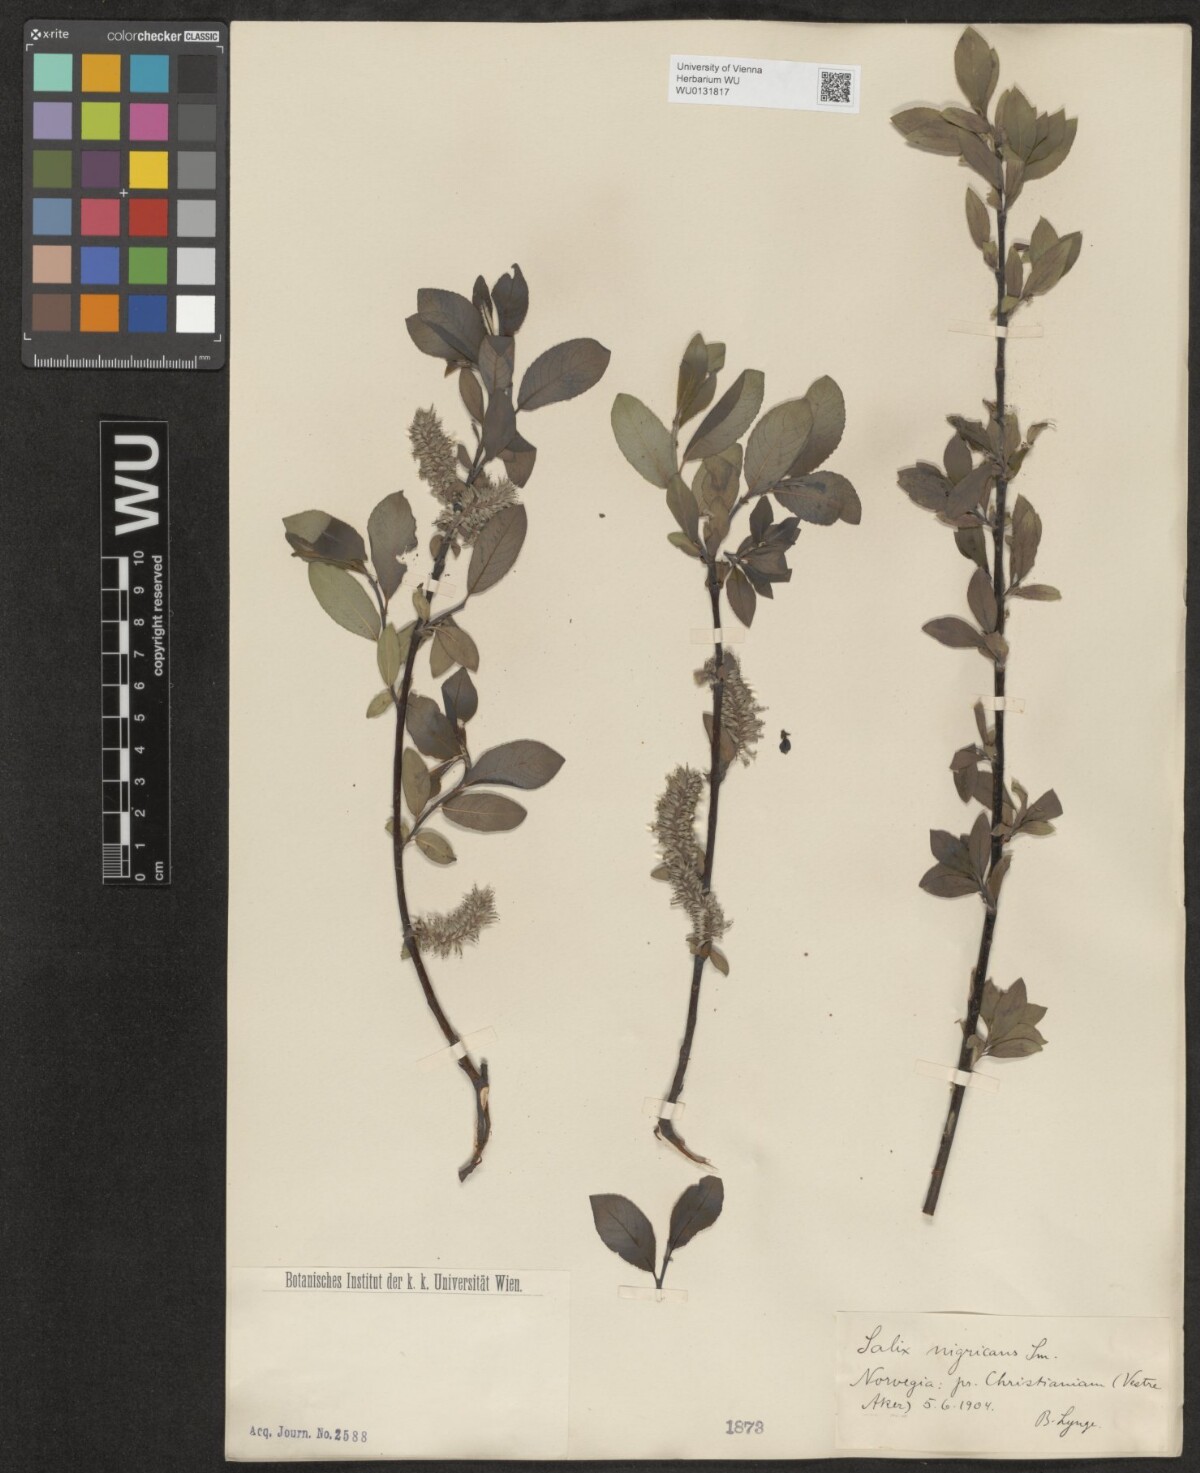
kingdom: Plantae
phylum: Tracheophyta
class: Magnoliopsida
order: Malpighiales
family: Salicaceae
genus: Salix
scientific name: Salix myrsinifolia
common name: Dark-leaved willow
